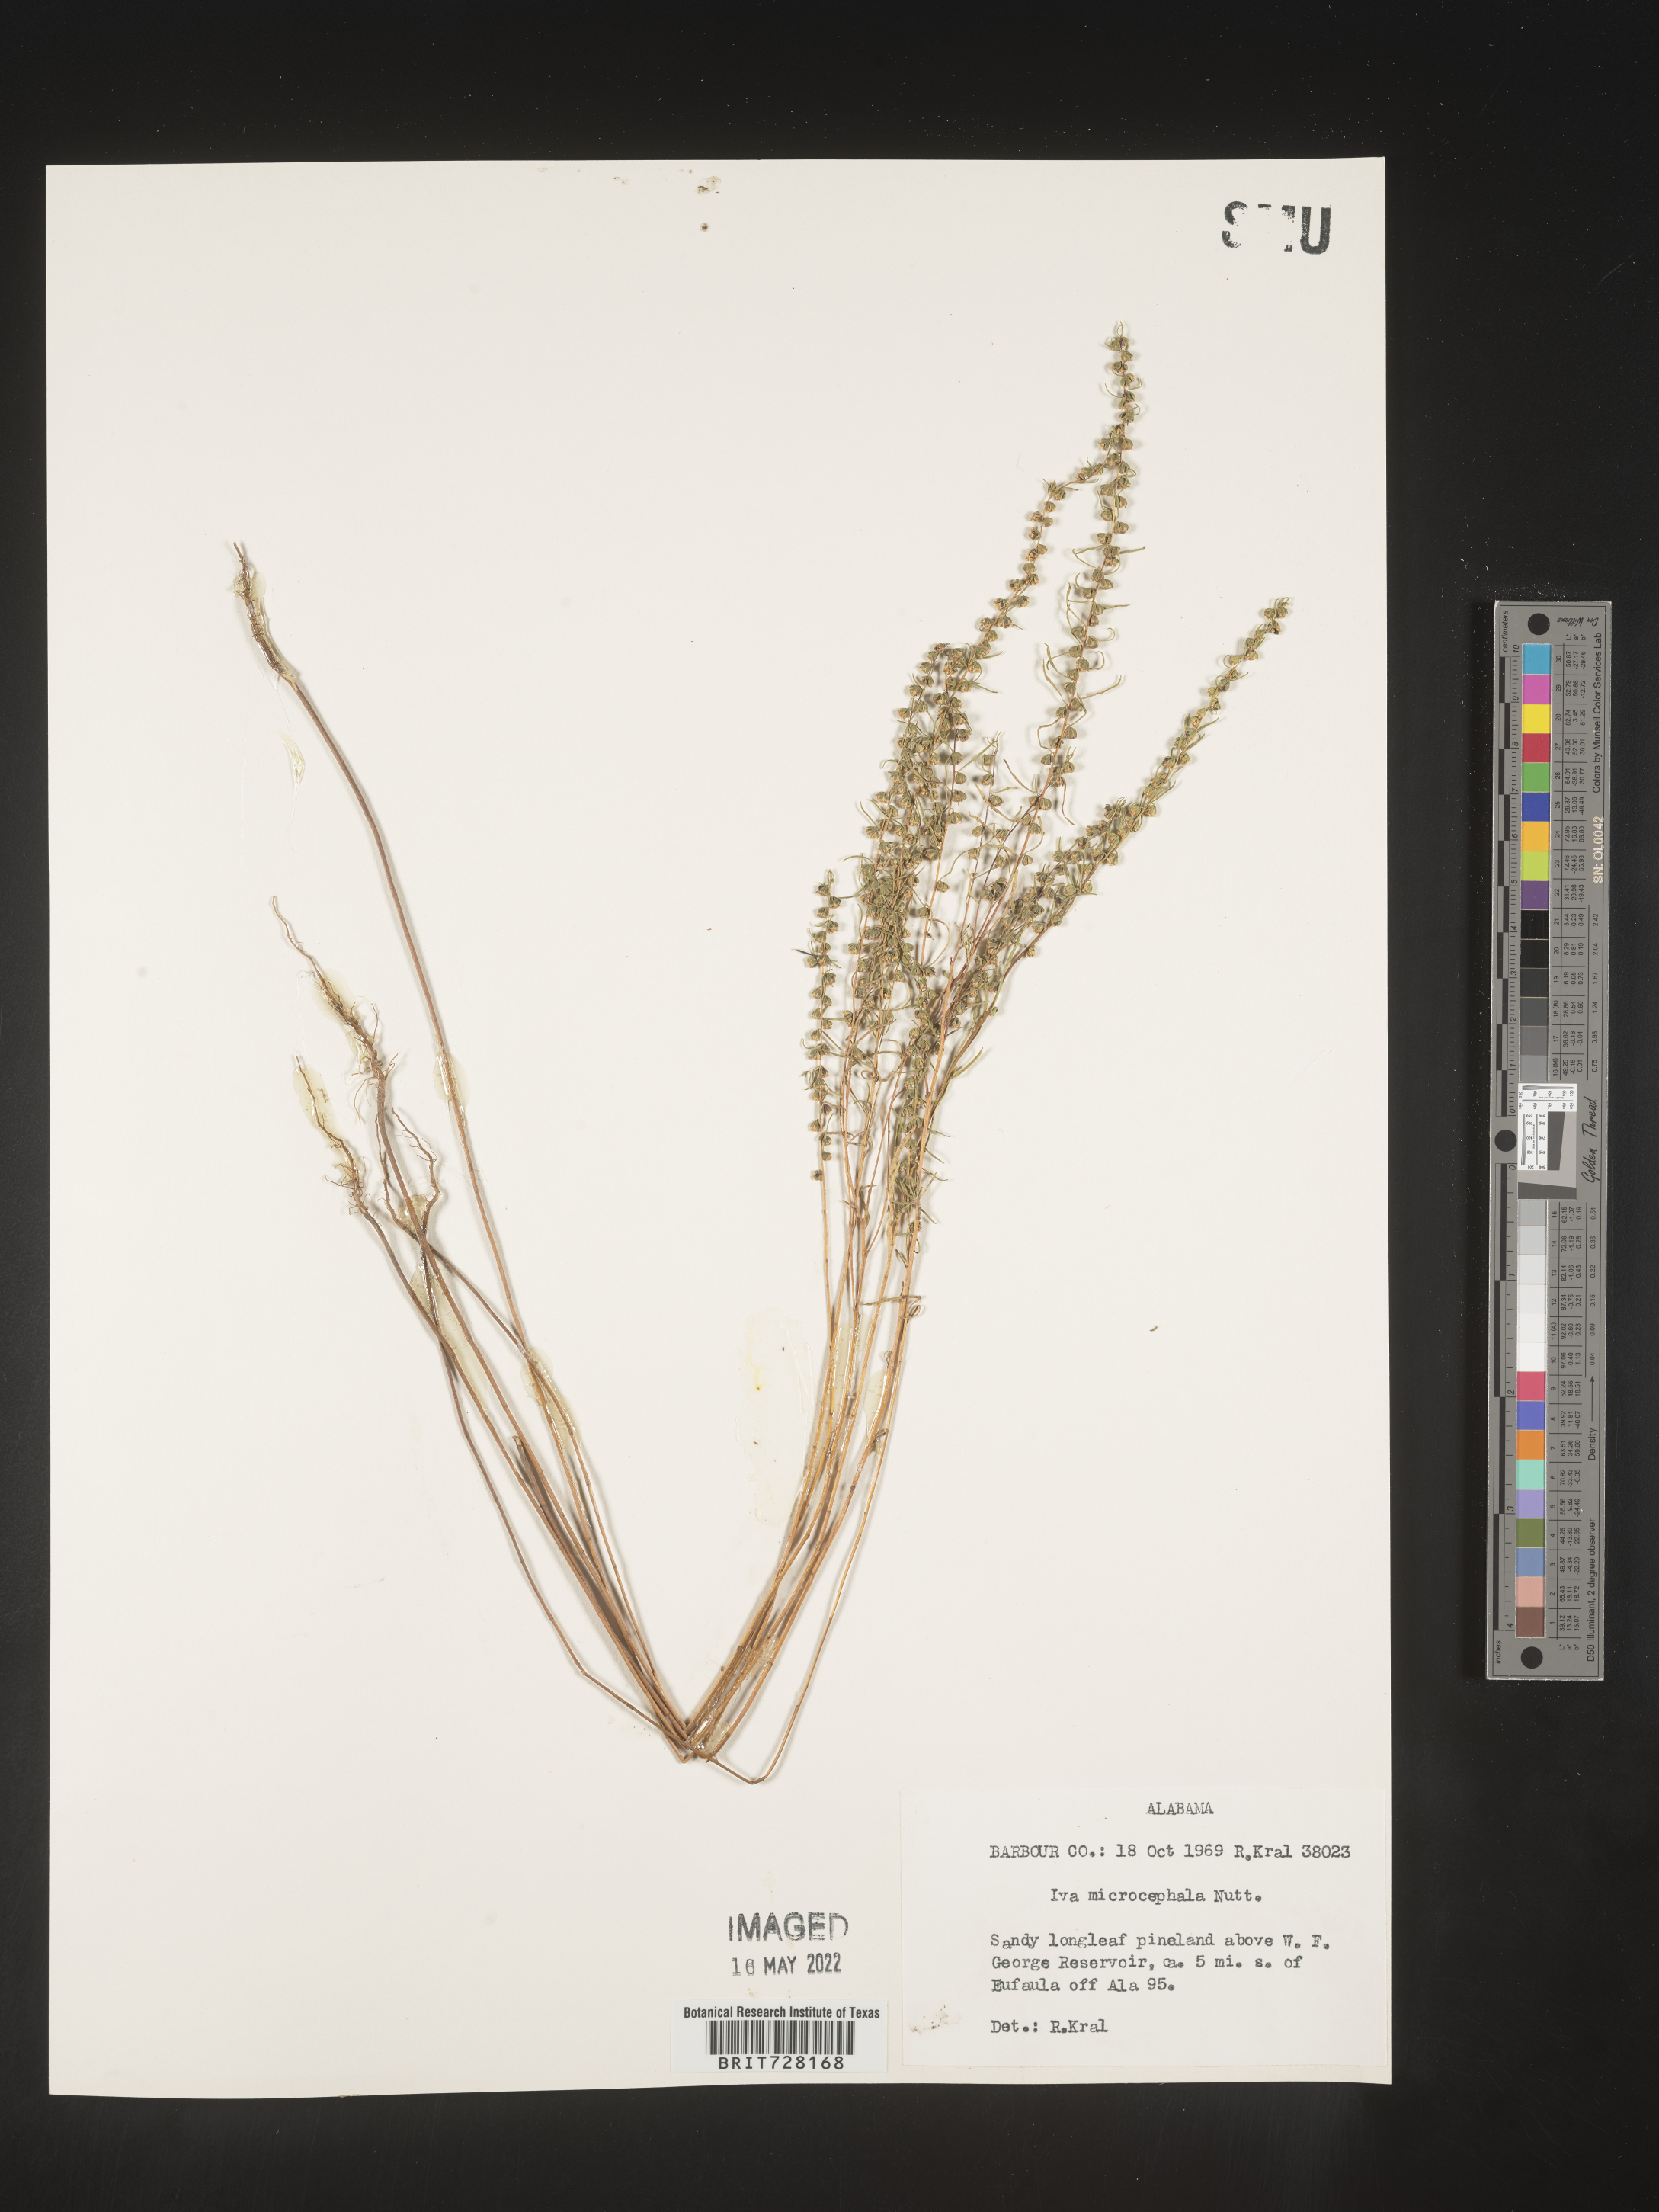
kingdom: Plantae
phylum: Tracheophyta
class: Magnoliopsida
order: Asterales
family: Asteraceae
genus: Iva
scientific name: Iva microcephala
